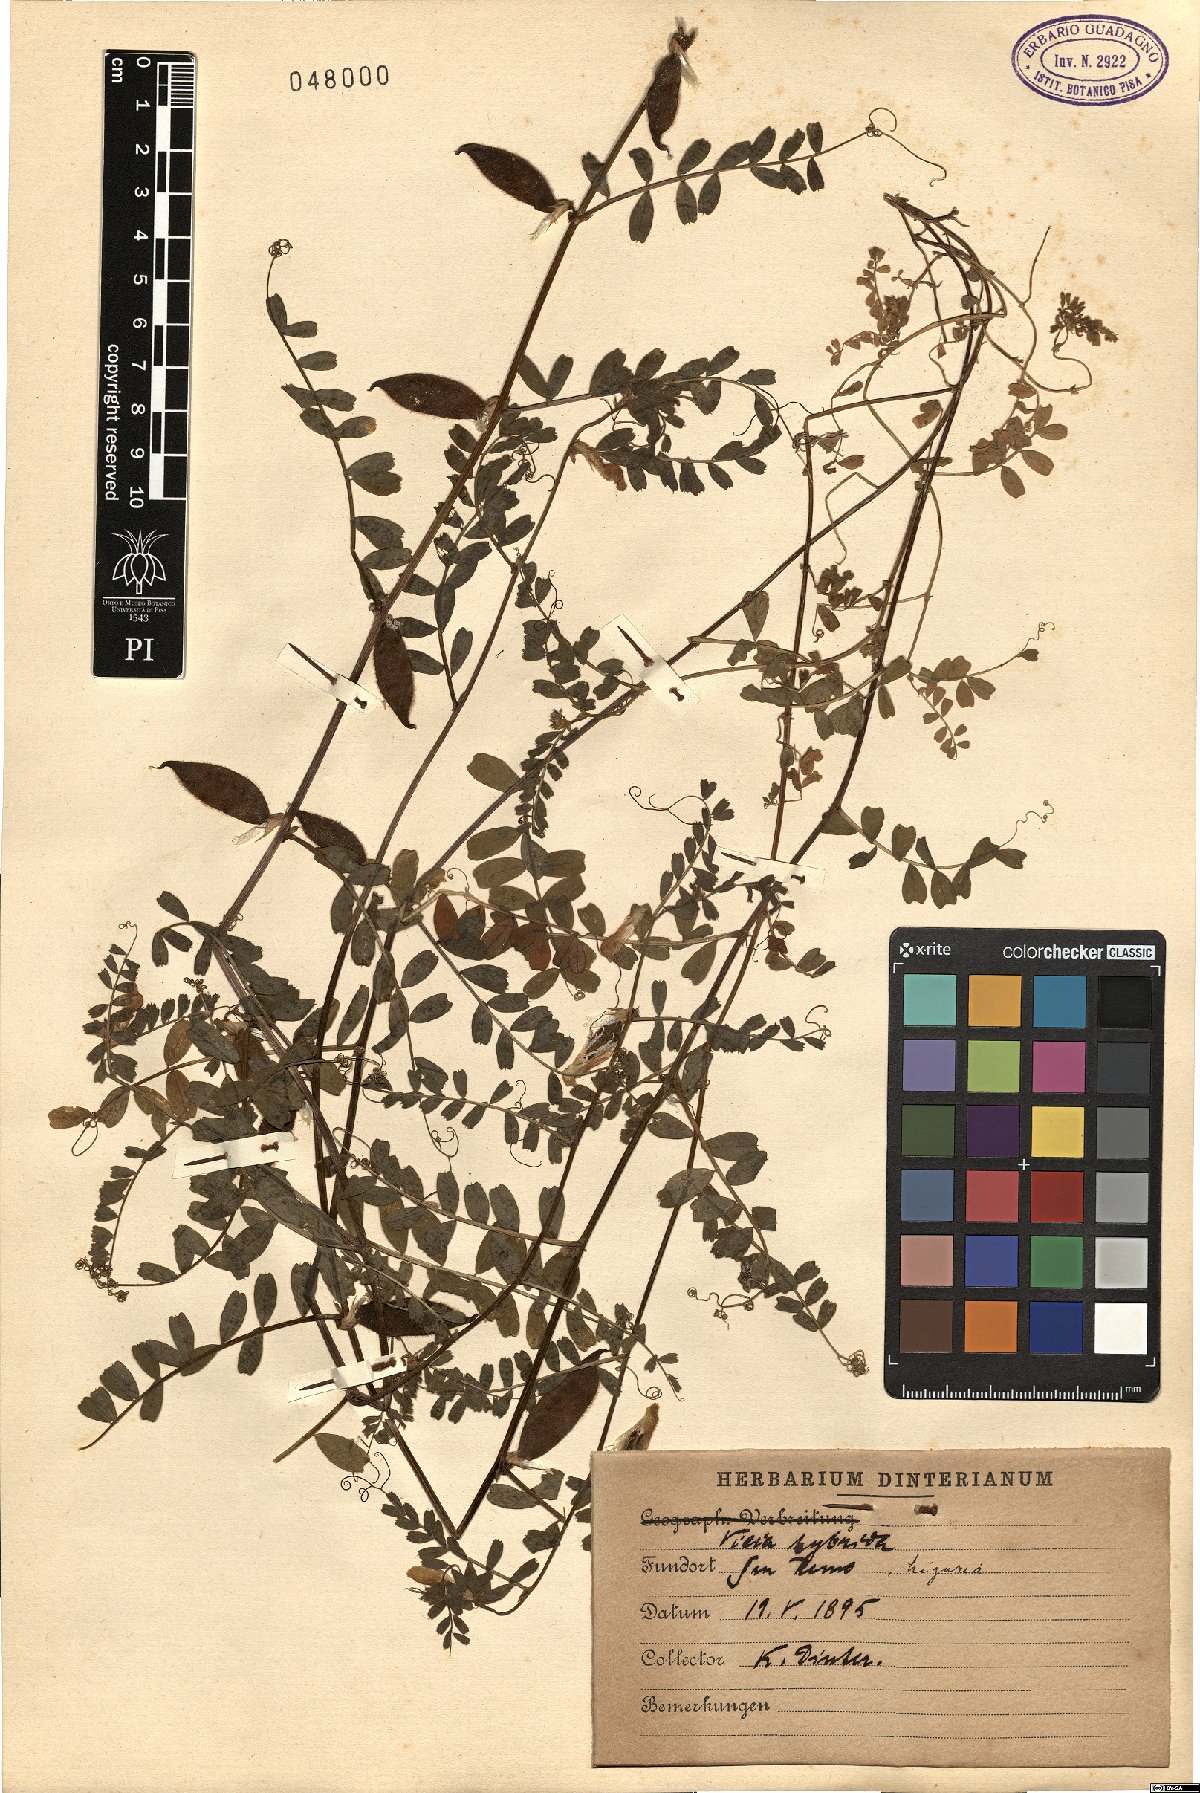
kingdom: Plantae
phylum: Tracheophyta
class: Magnoliopsida
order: Fabales
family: Fabaceae
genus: Vicia
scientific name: Vicia hybrida
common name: Hairy yellow vetch
